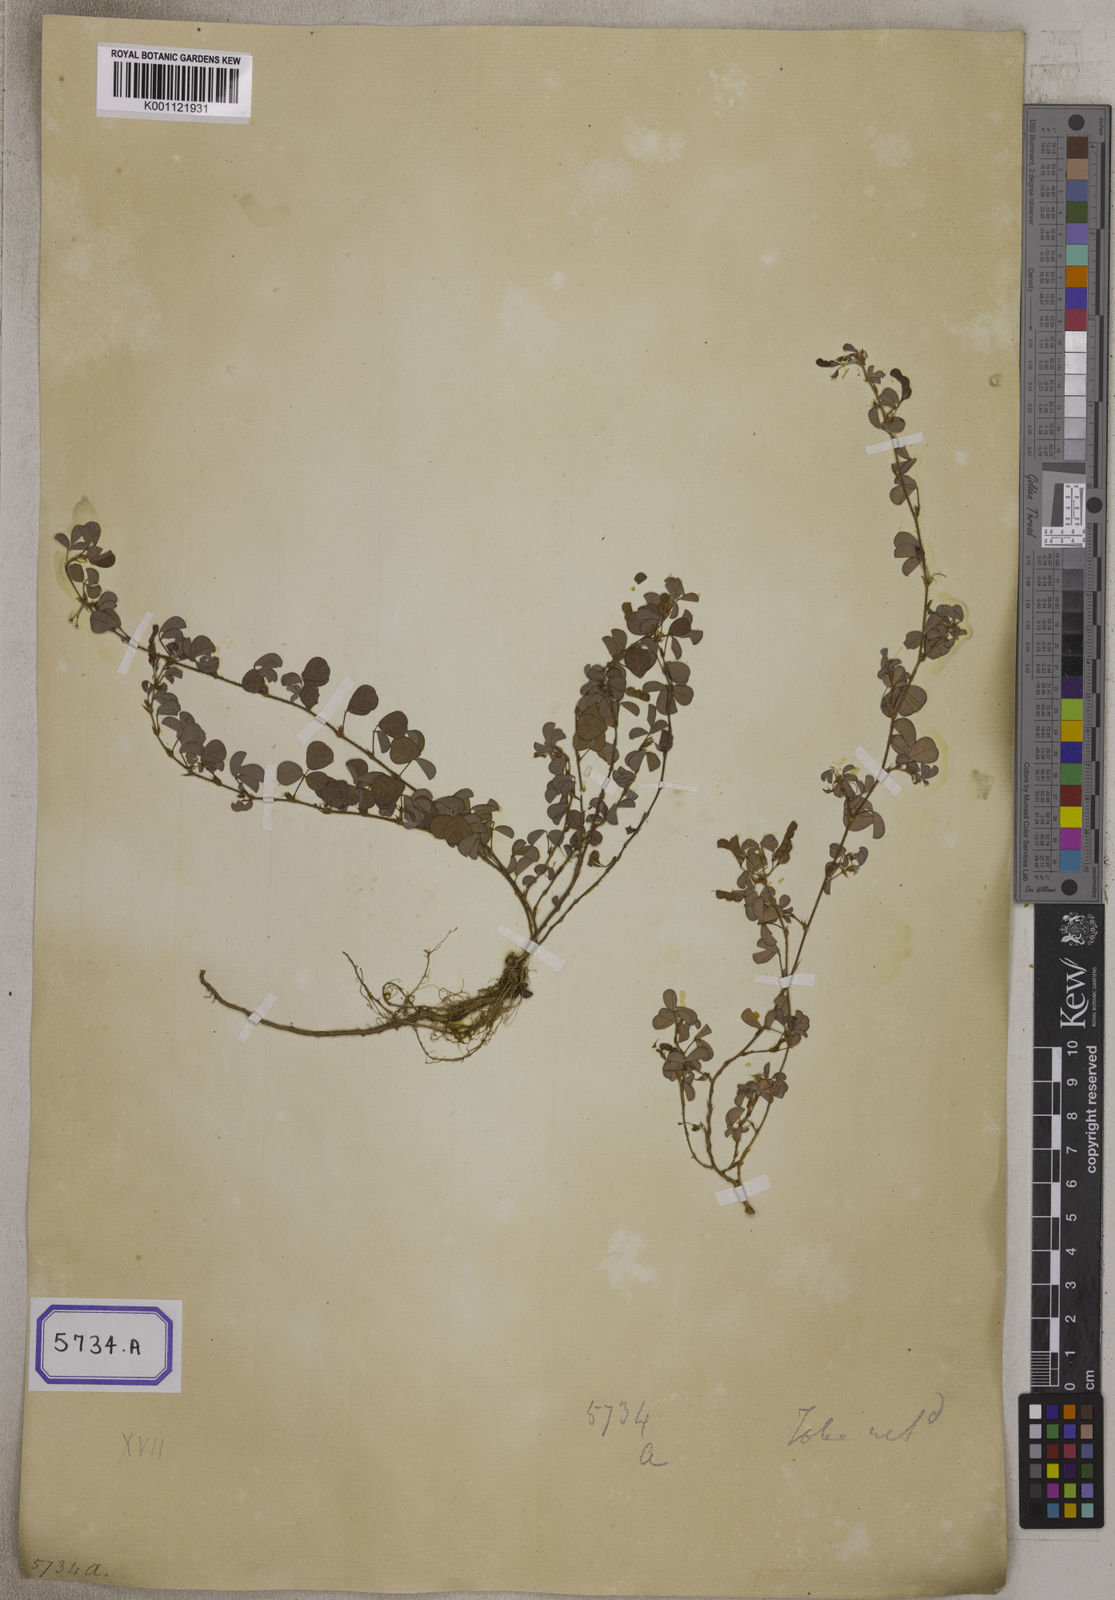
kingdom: Plantae
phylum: Tracheophyta
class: Magnoliopsida
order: Fabales
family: Fabaceae
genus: Desmodium
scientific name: Desmodium
